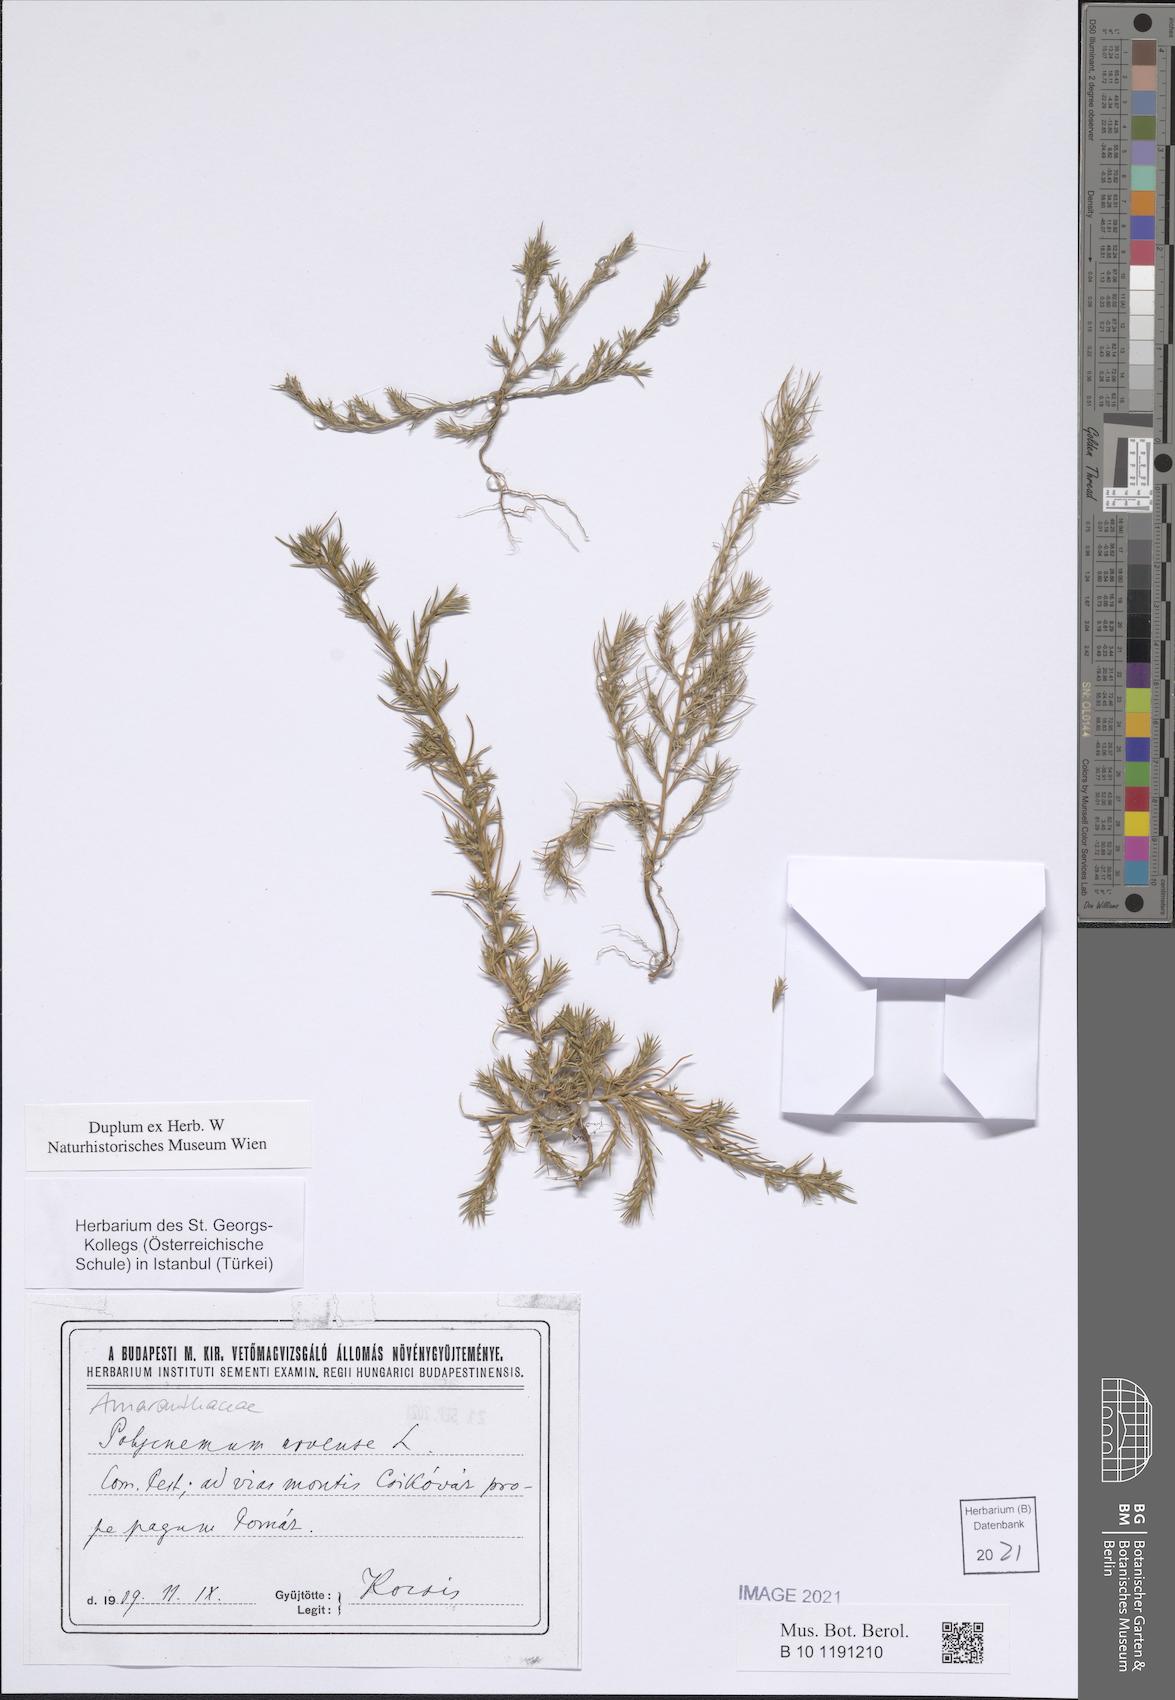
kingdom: Plantae
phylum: Tracheophyta
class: Magnoliopsida
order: Caryophyllales
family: Amaranthaceae
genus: Polycnemum
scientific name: Polycnemum arvense
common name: Soft needleleaf
